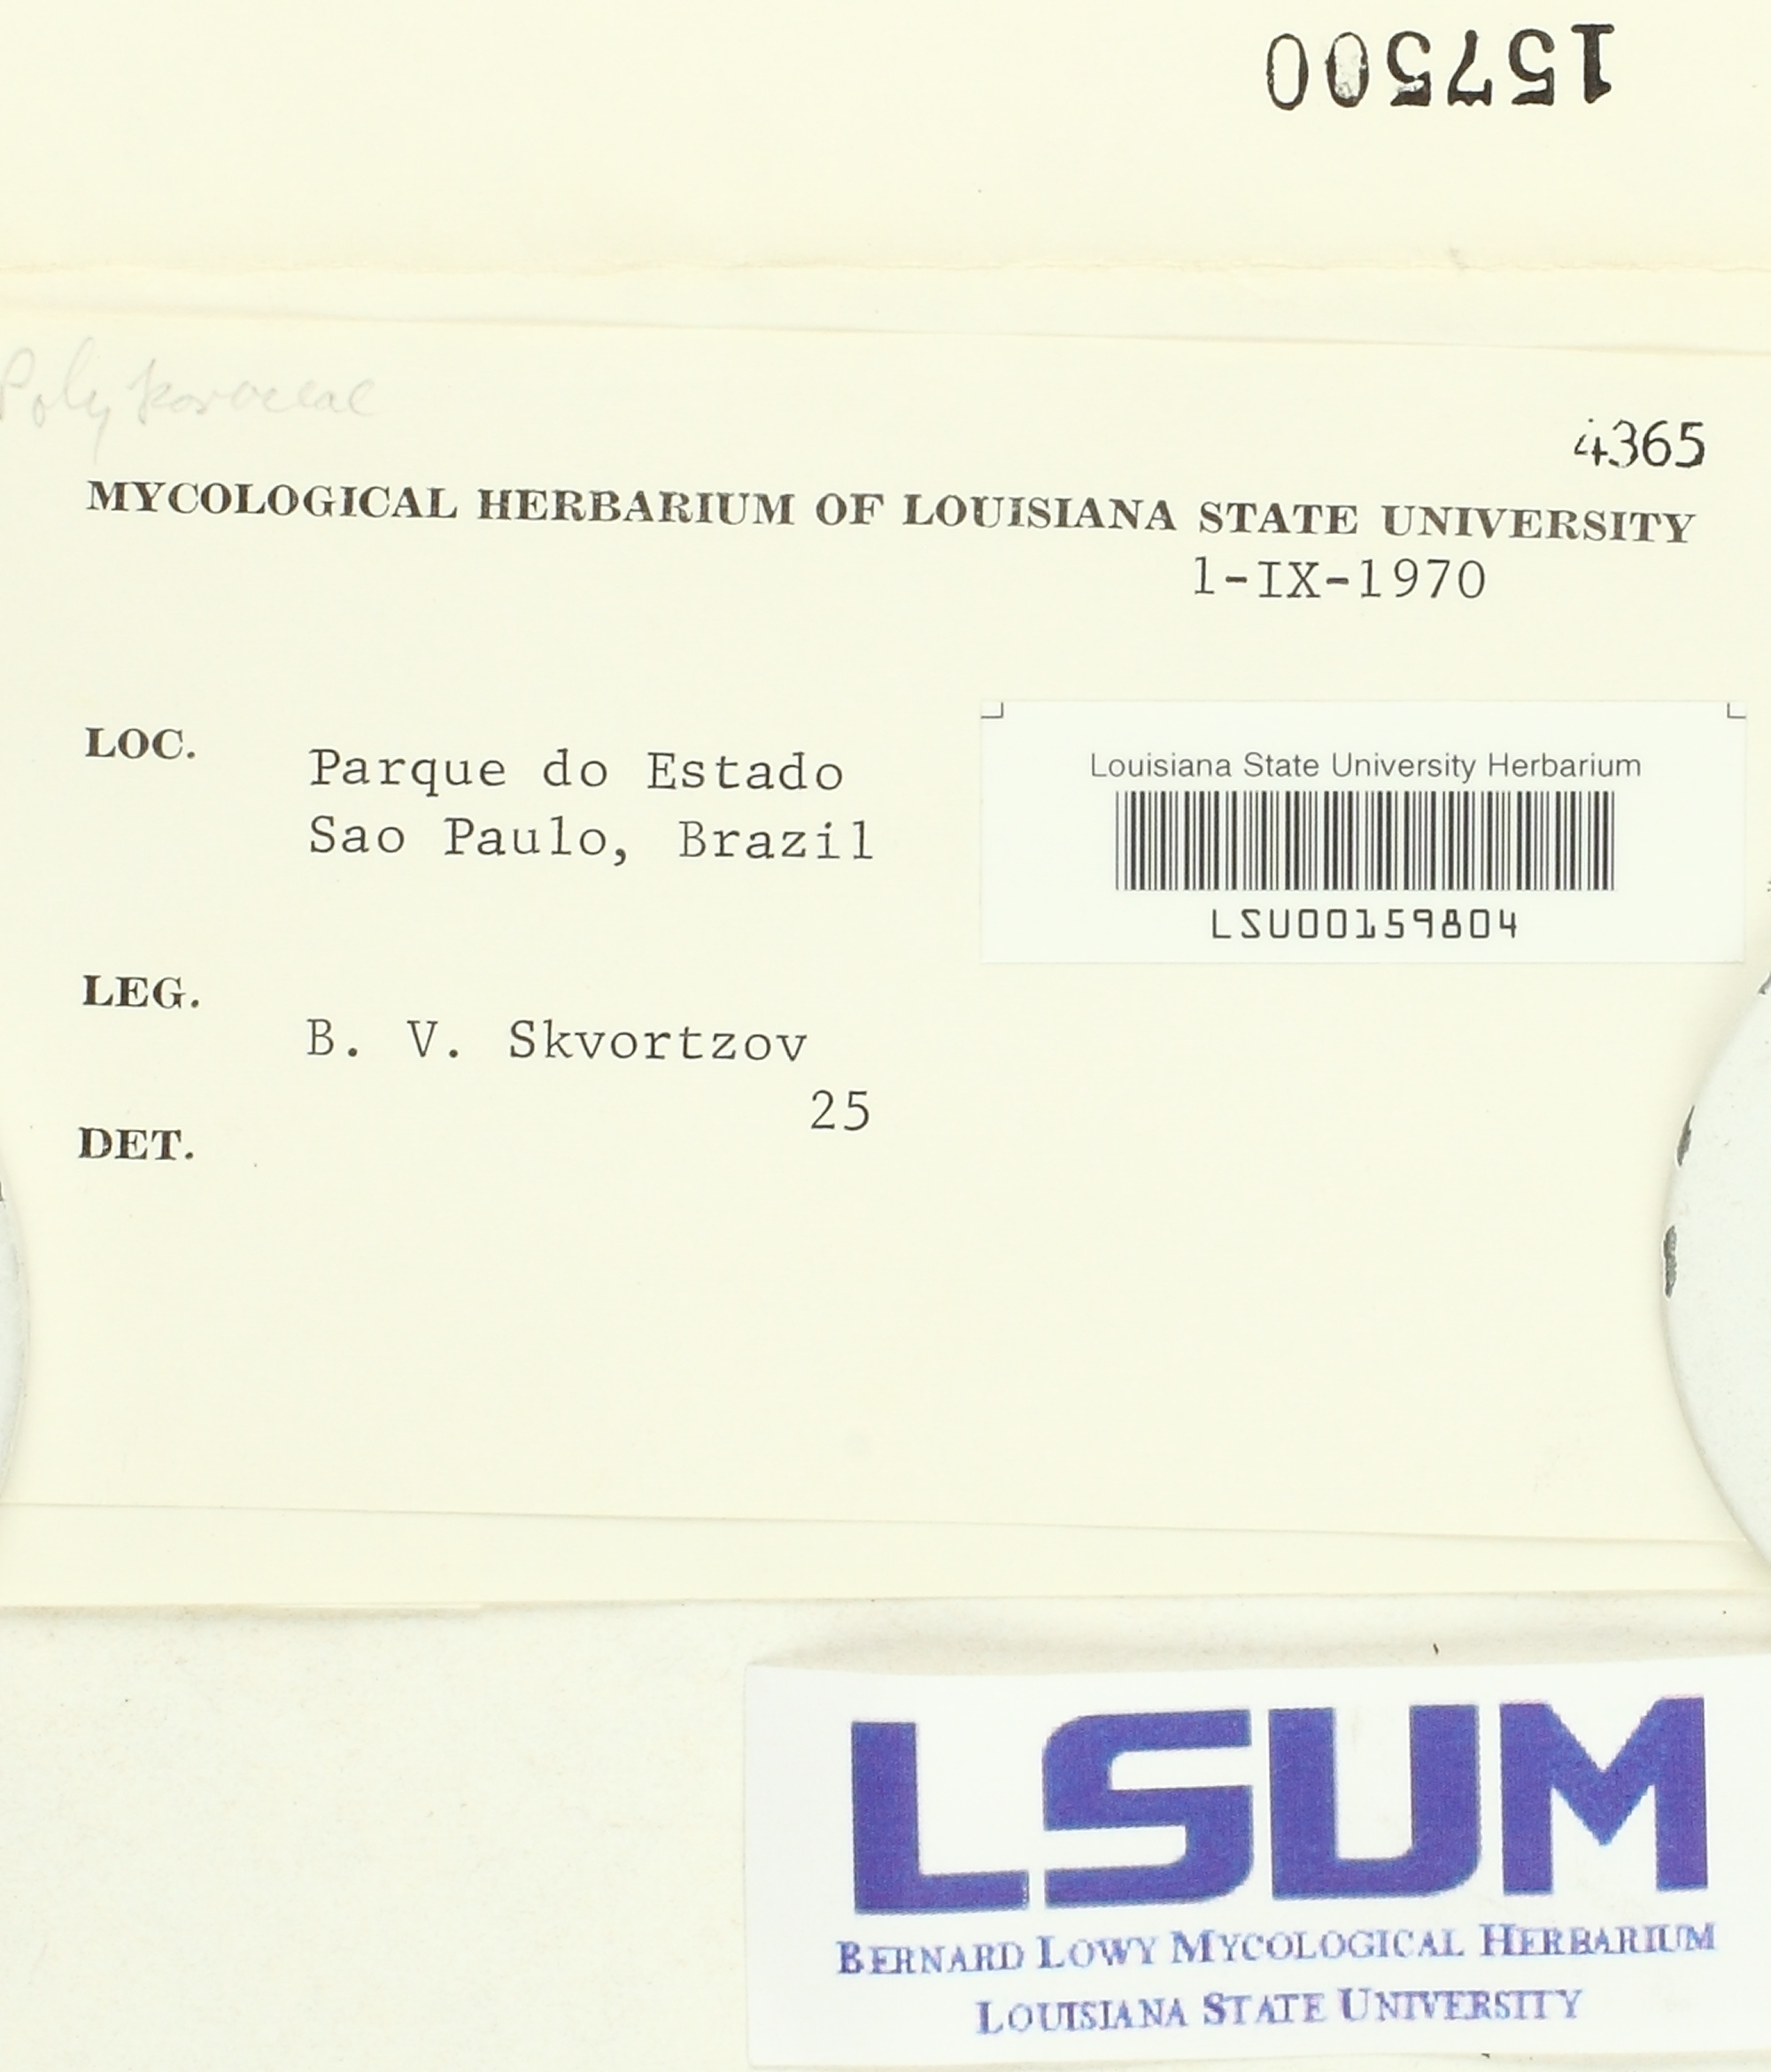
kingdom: Fungi
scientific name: Fungi
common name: Fungi
